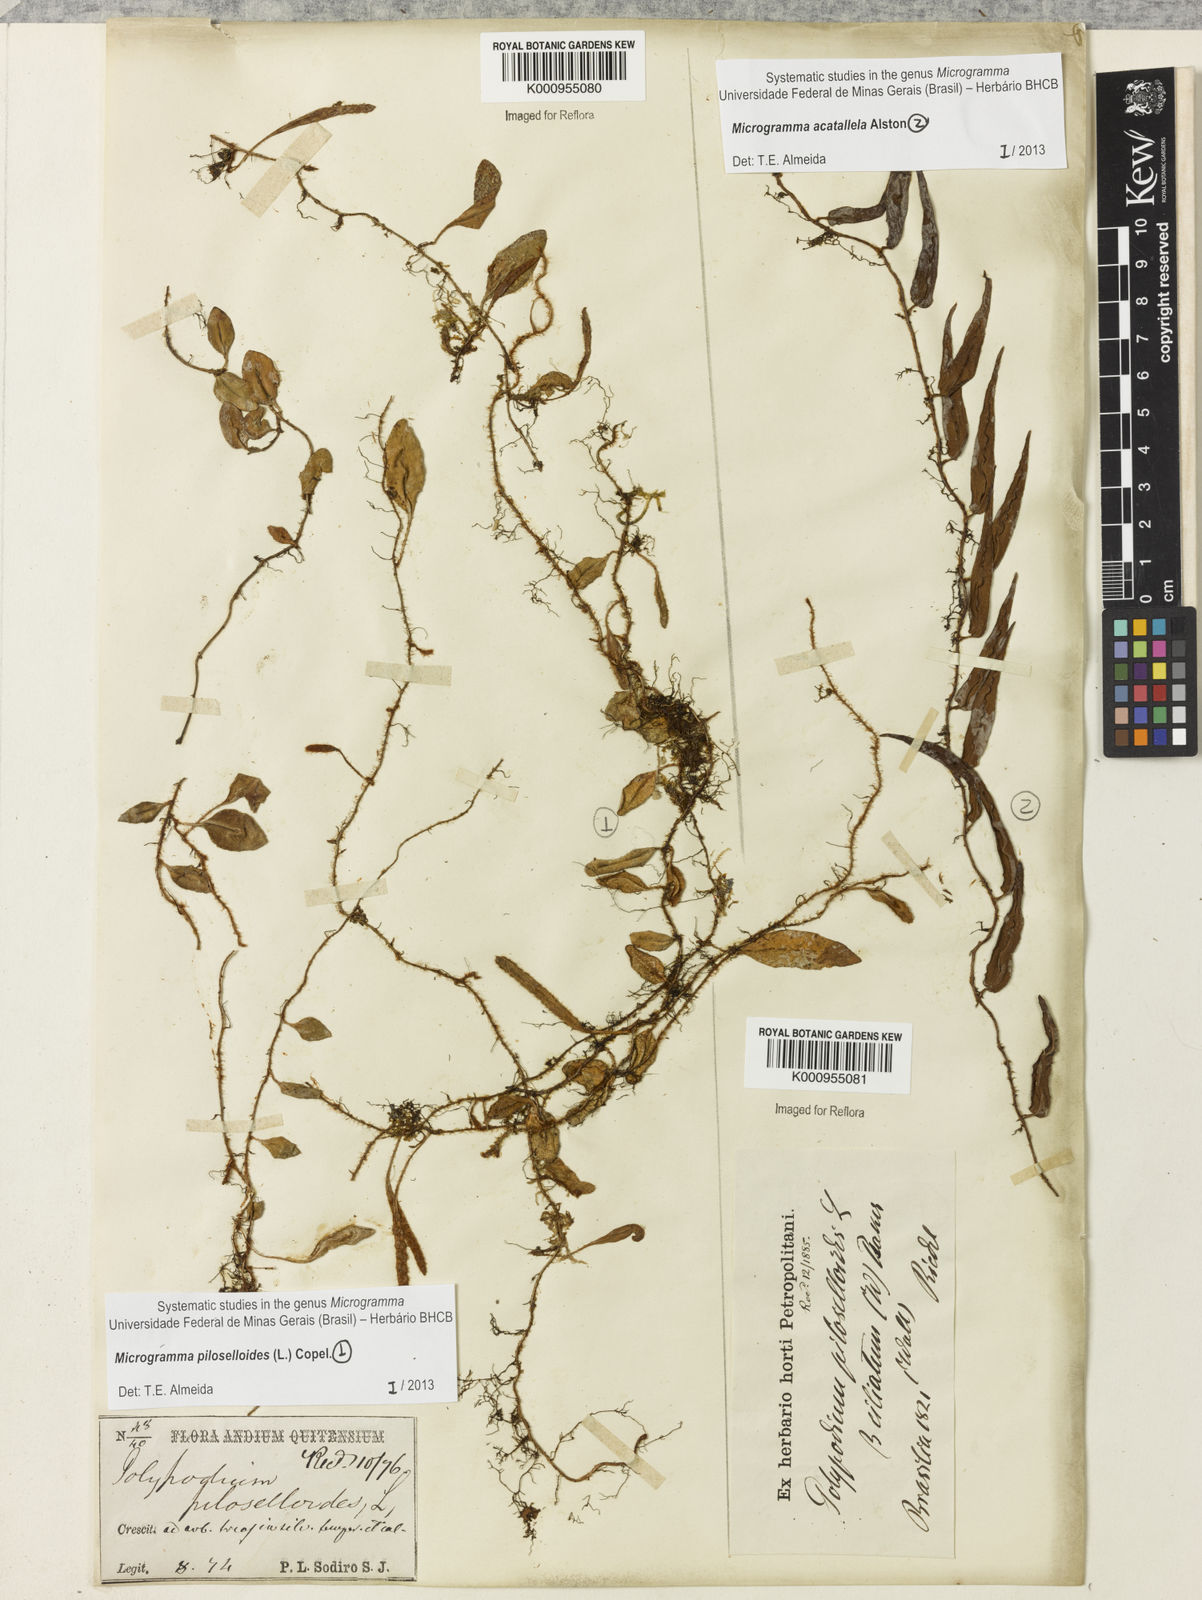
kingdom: Plantae
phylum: Tracheophyta
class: Polypodiopsida
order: Polypodiales
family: Polypodiaceae
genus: Microgramma
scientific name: Microgramma tobagensis
